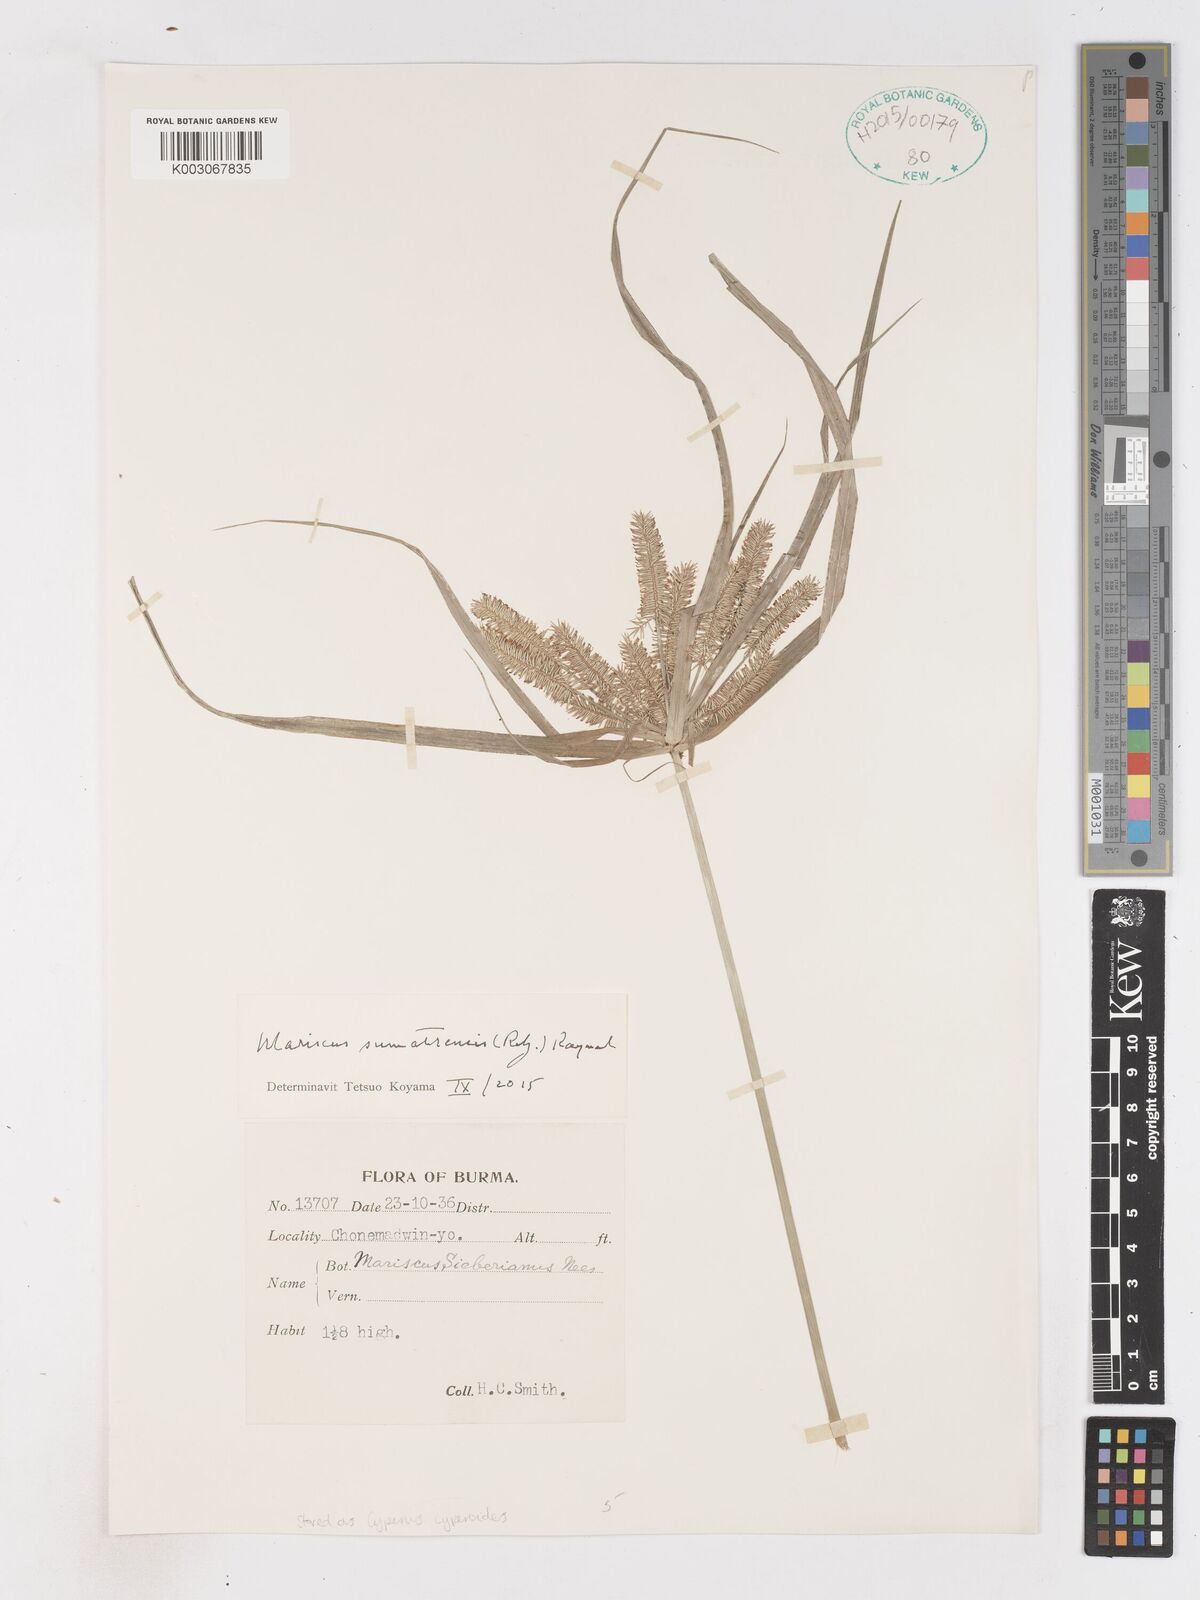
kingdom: Plantae
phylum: Tracheophyta
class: Liliopsida
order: Poales
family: Cyperaceae
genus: Cyperus
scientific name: Cyperus cyperoides
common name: Pacific island flat sedge
